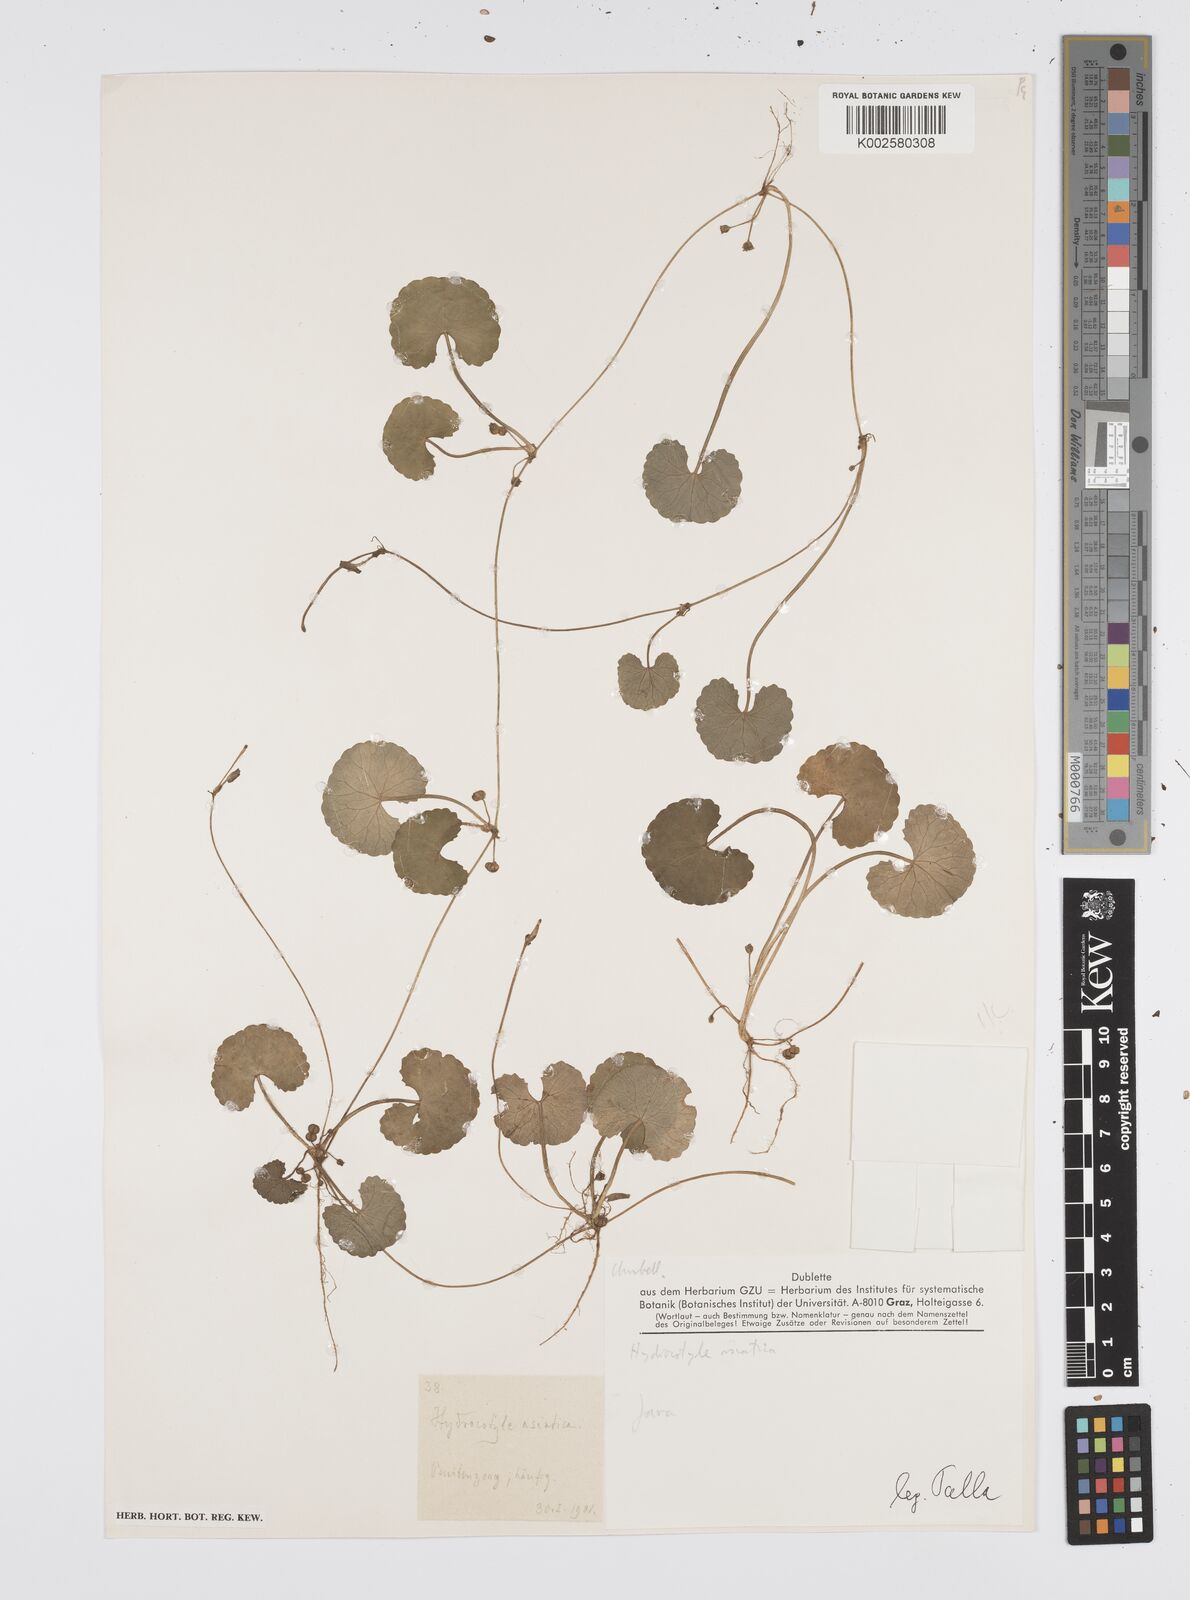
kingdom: Plantae
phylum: Tracheophyta
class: Magnoliopsida
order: Apiales
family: Apiaceae
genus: Centella
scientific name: Centella asiatica
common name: Spadeleaf
